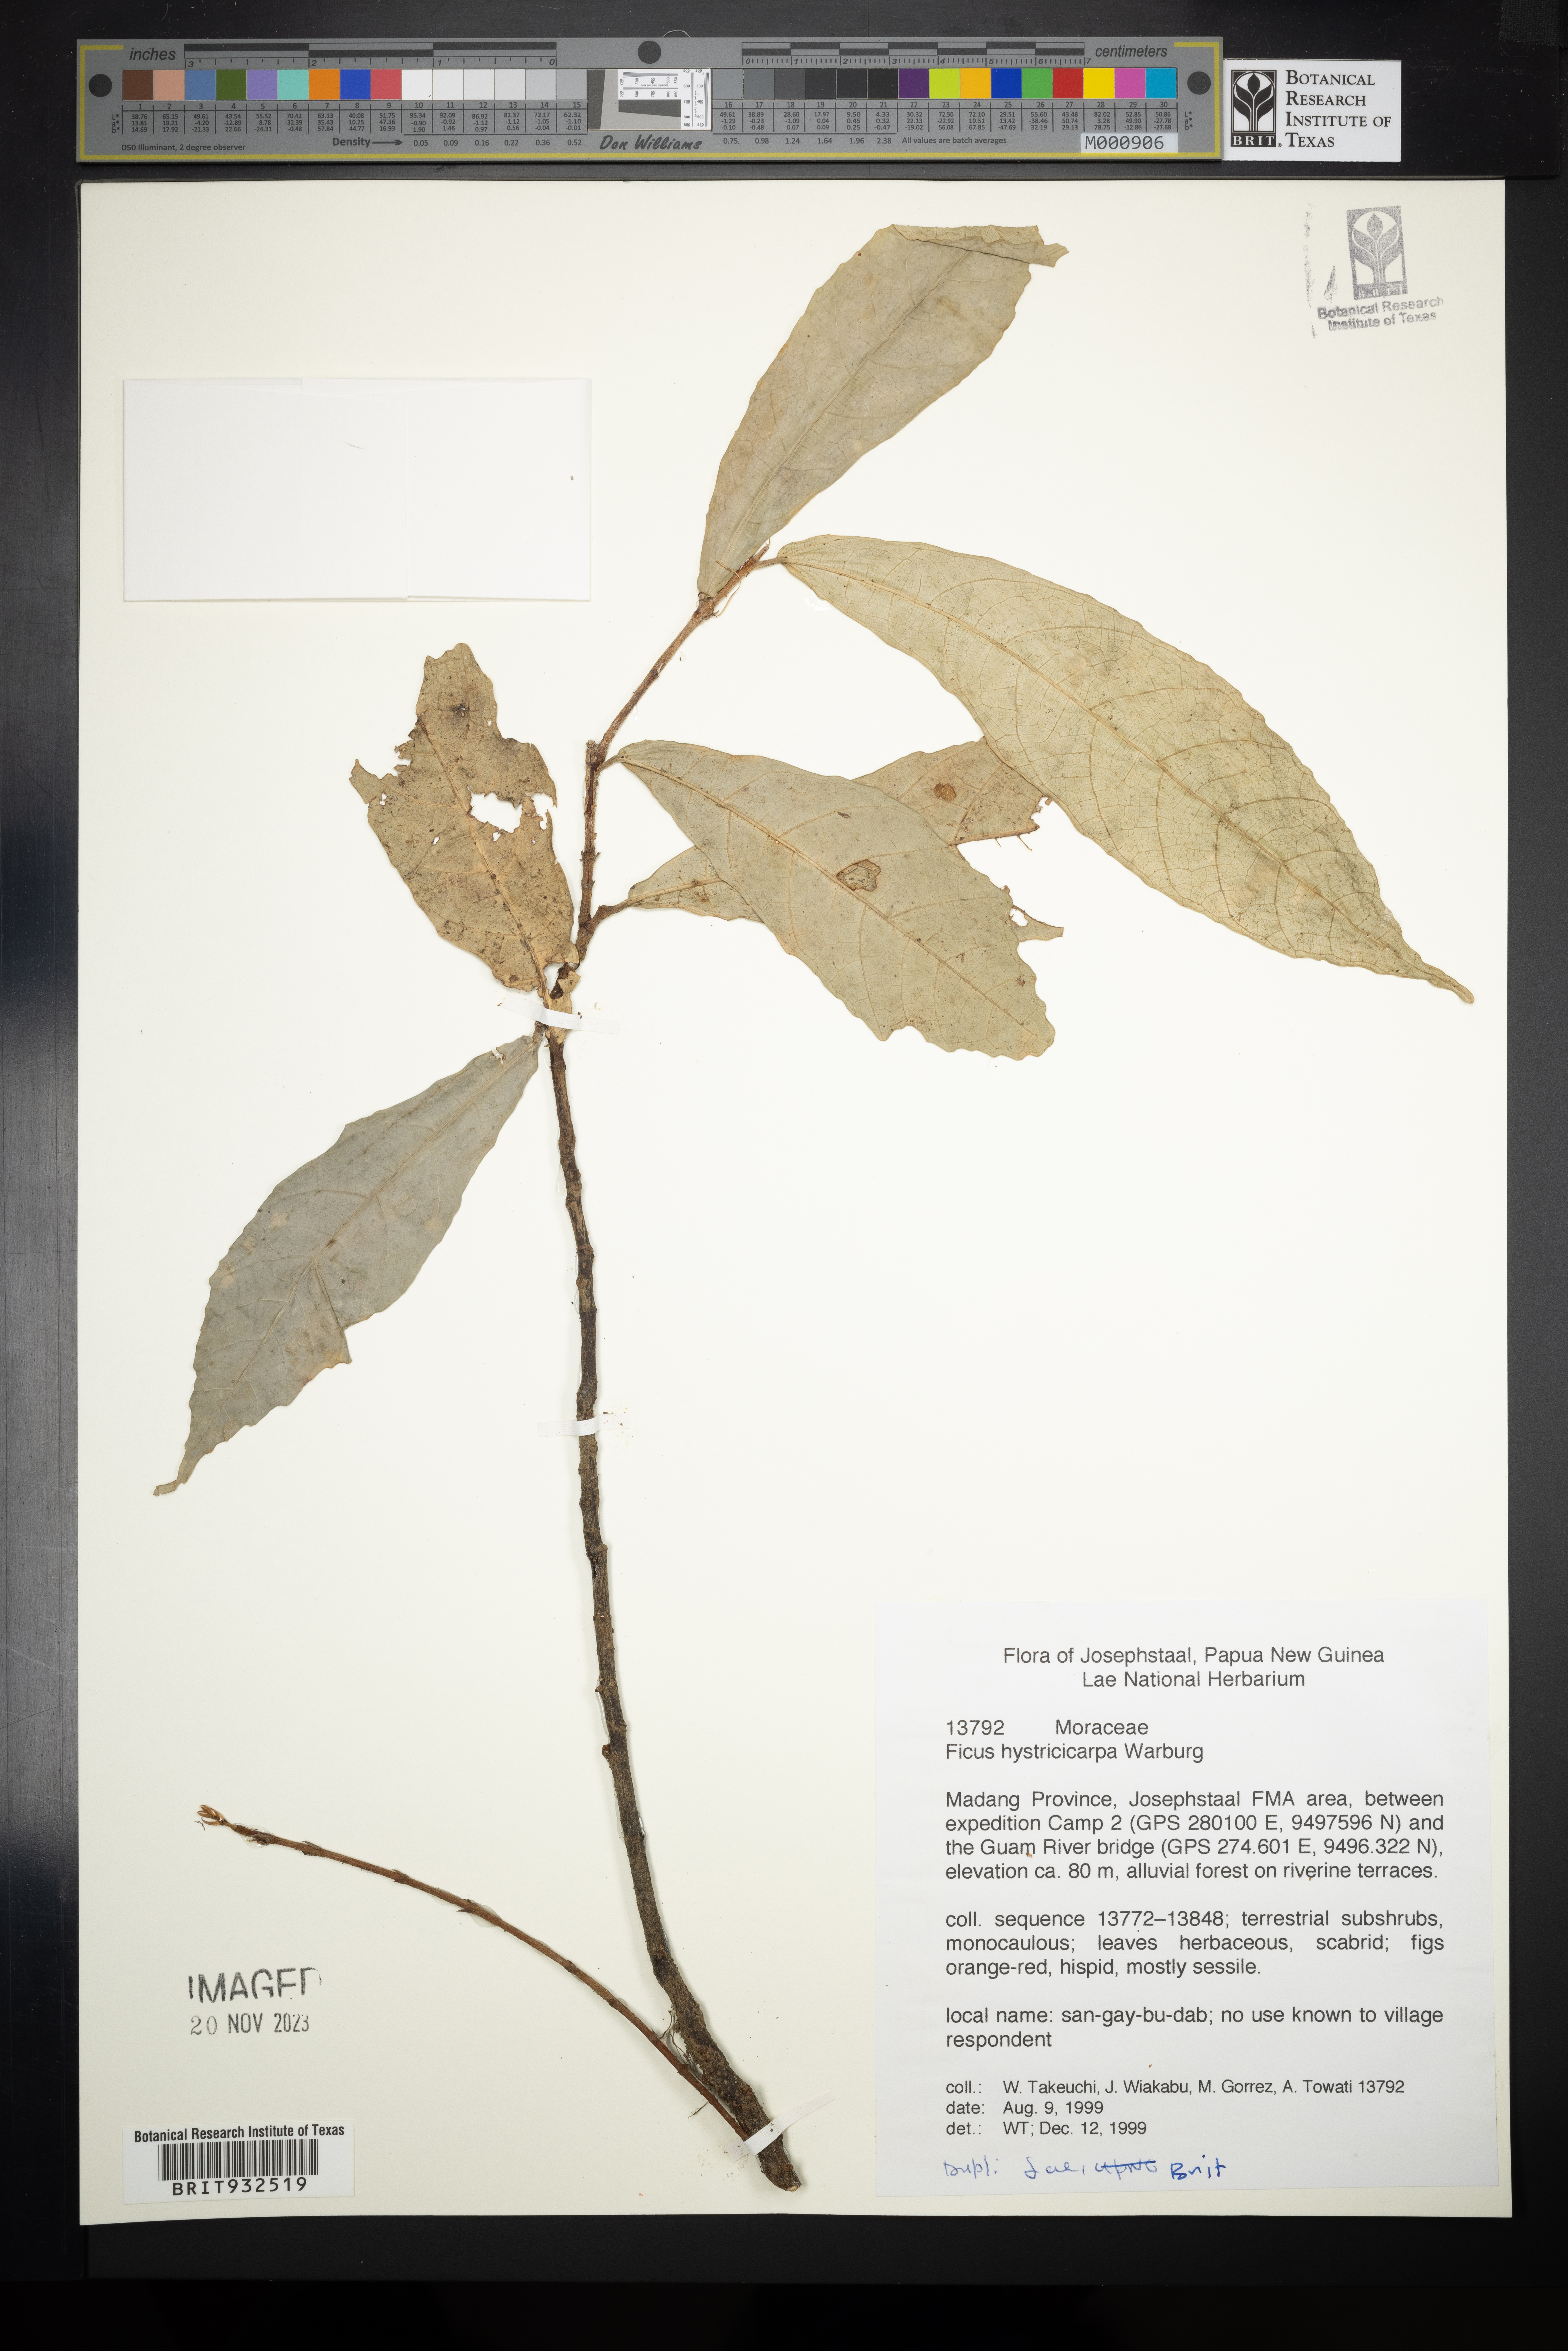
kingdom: Plantae
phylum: Tracheophyta
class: Magnoliopsida
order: Rosales
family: Moraceae
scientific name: Moraceae
